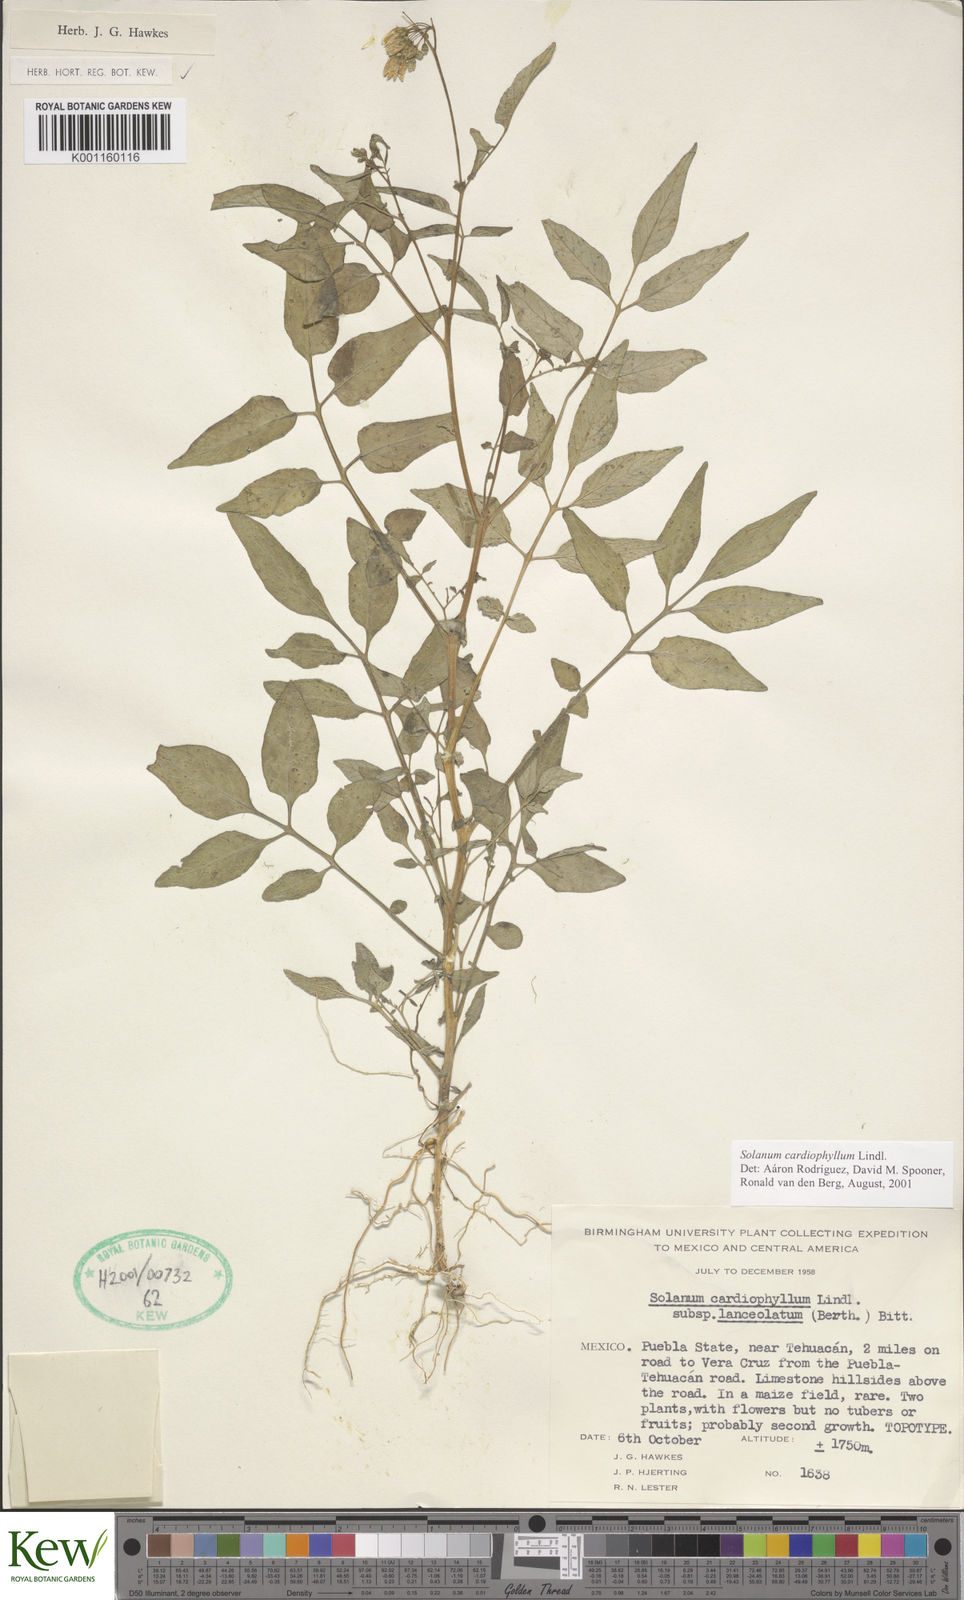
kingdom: Plantae
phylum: Tracheophyta
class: Magnoliopsida
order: Solanales
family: Solanaceae
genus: Solanum
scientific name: Solanum cardiophyllum
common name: Heartleaf horsenettle
